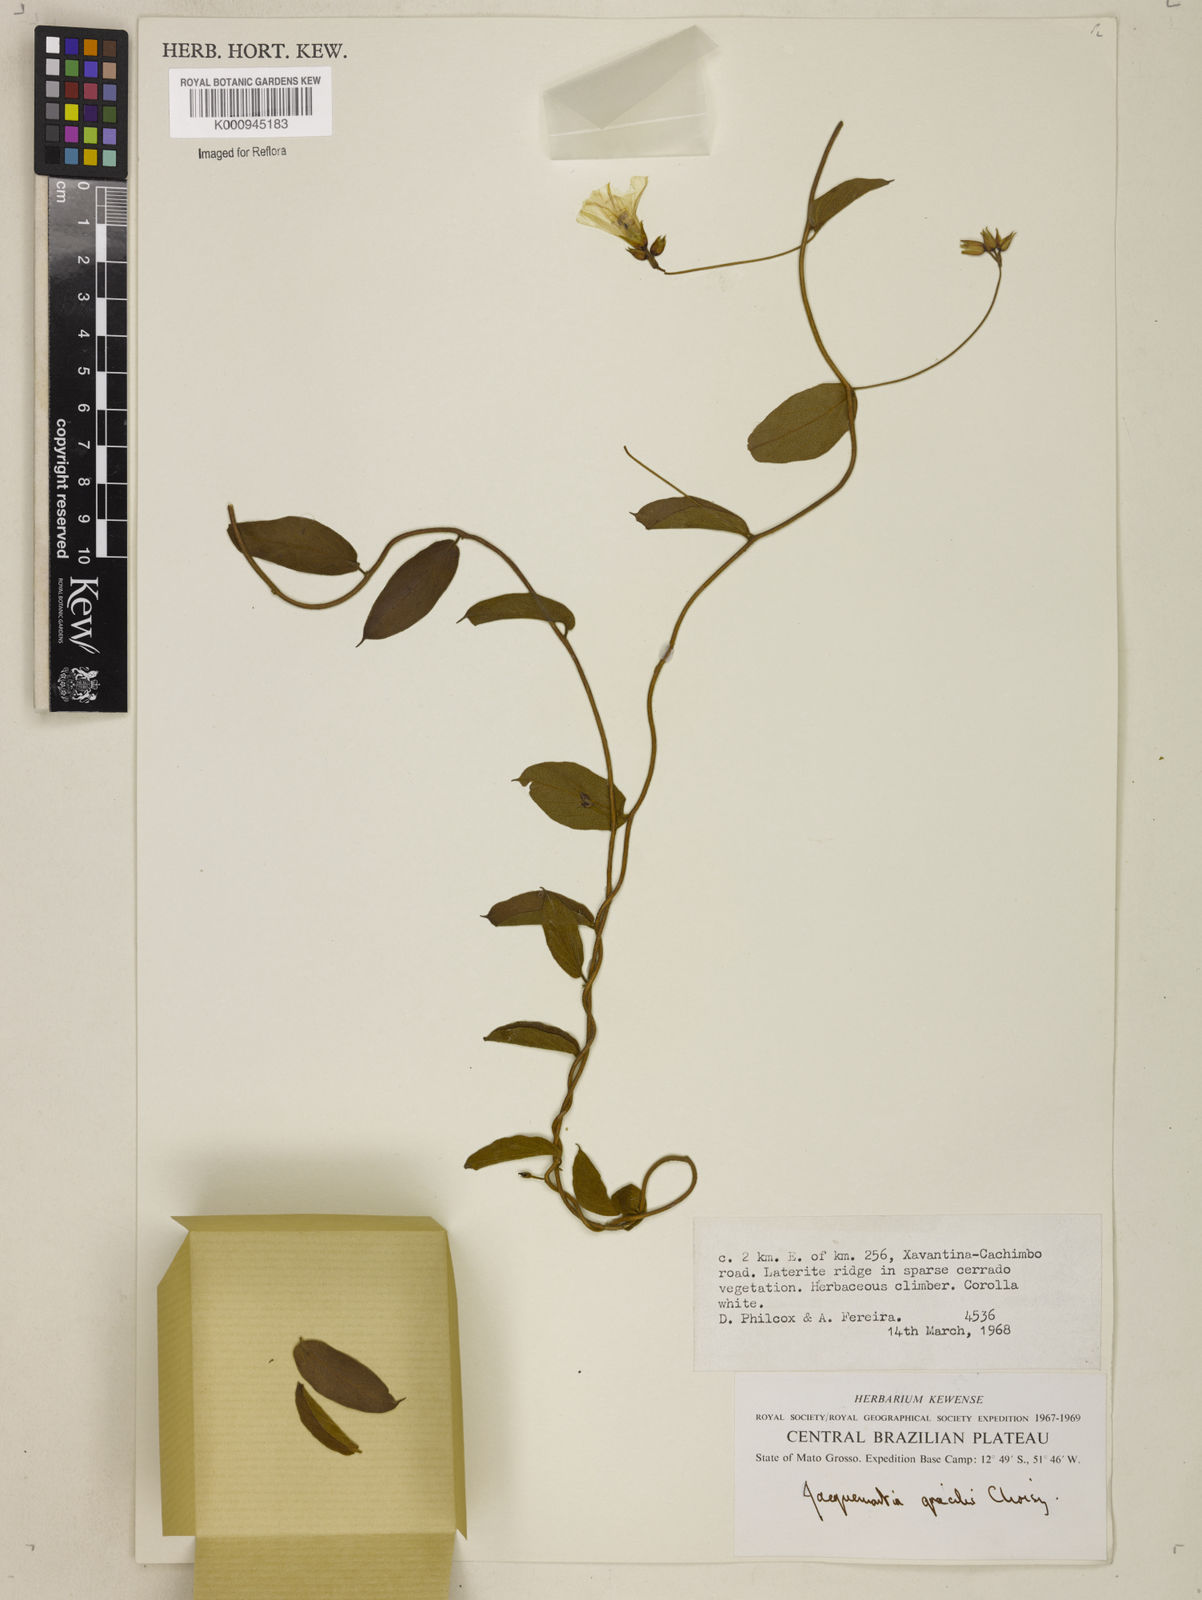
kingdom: Plantae
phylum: Tracheophyta
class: Magnoliopsida
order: Solanales
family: Convolvulaceae
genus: Jacquemontia
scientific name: Jacquemontia gracilis
